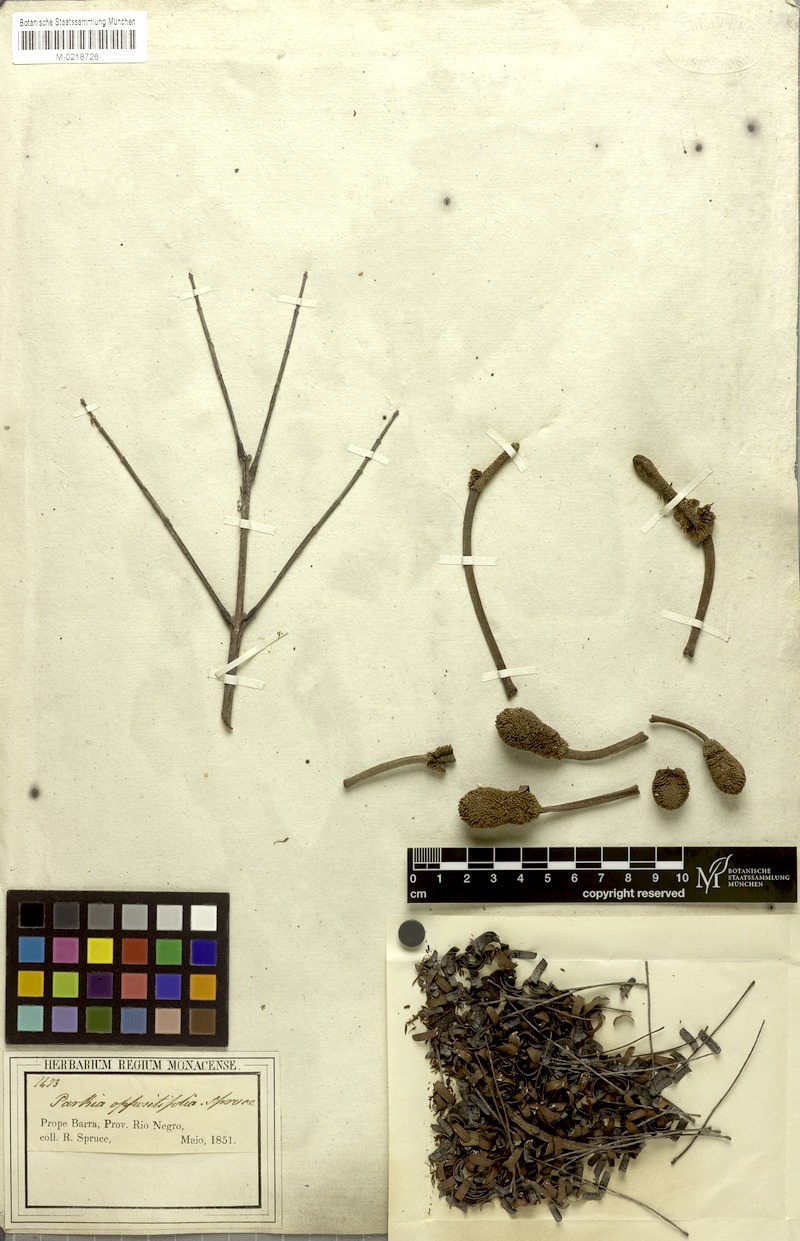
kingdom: Plantae
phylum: Tracheophyta
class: Magnoliopsida
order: Fabales
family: Fabaceae
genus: Parkia
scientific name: Parkia nitida
